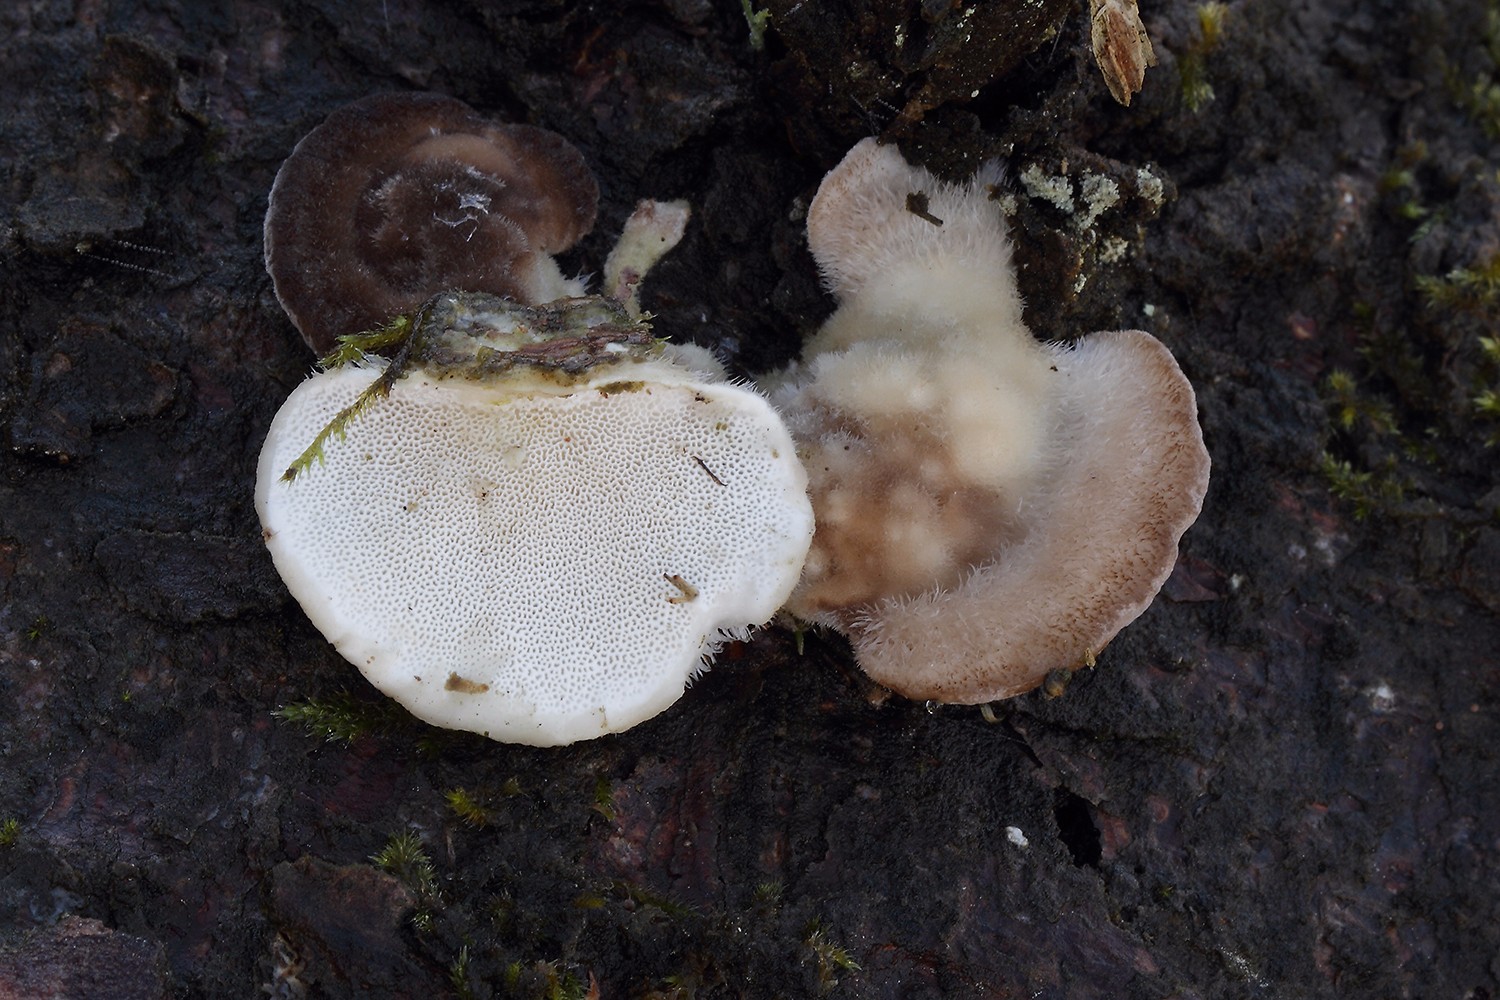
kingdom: Fungi
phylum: Basidiomycota
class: Agaricomycetes
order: Polyporales
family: Polyporaceae
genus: Trametes
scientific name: Trametes hirsuta
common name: håret læderporesvamp
